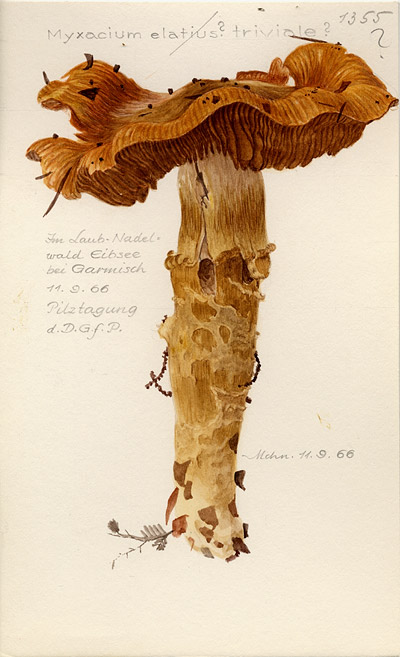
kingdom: Fungi
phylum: Basidiomycota
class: Agaricomycetes
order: Agaricales
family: Cortinariaceae
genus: Cortinarius
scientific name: Cortinarius trivialis
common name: Girdled webcap
